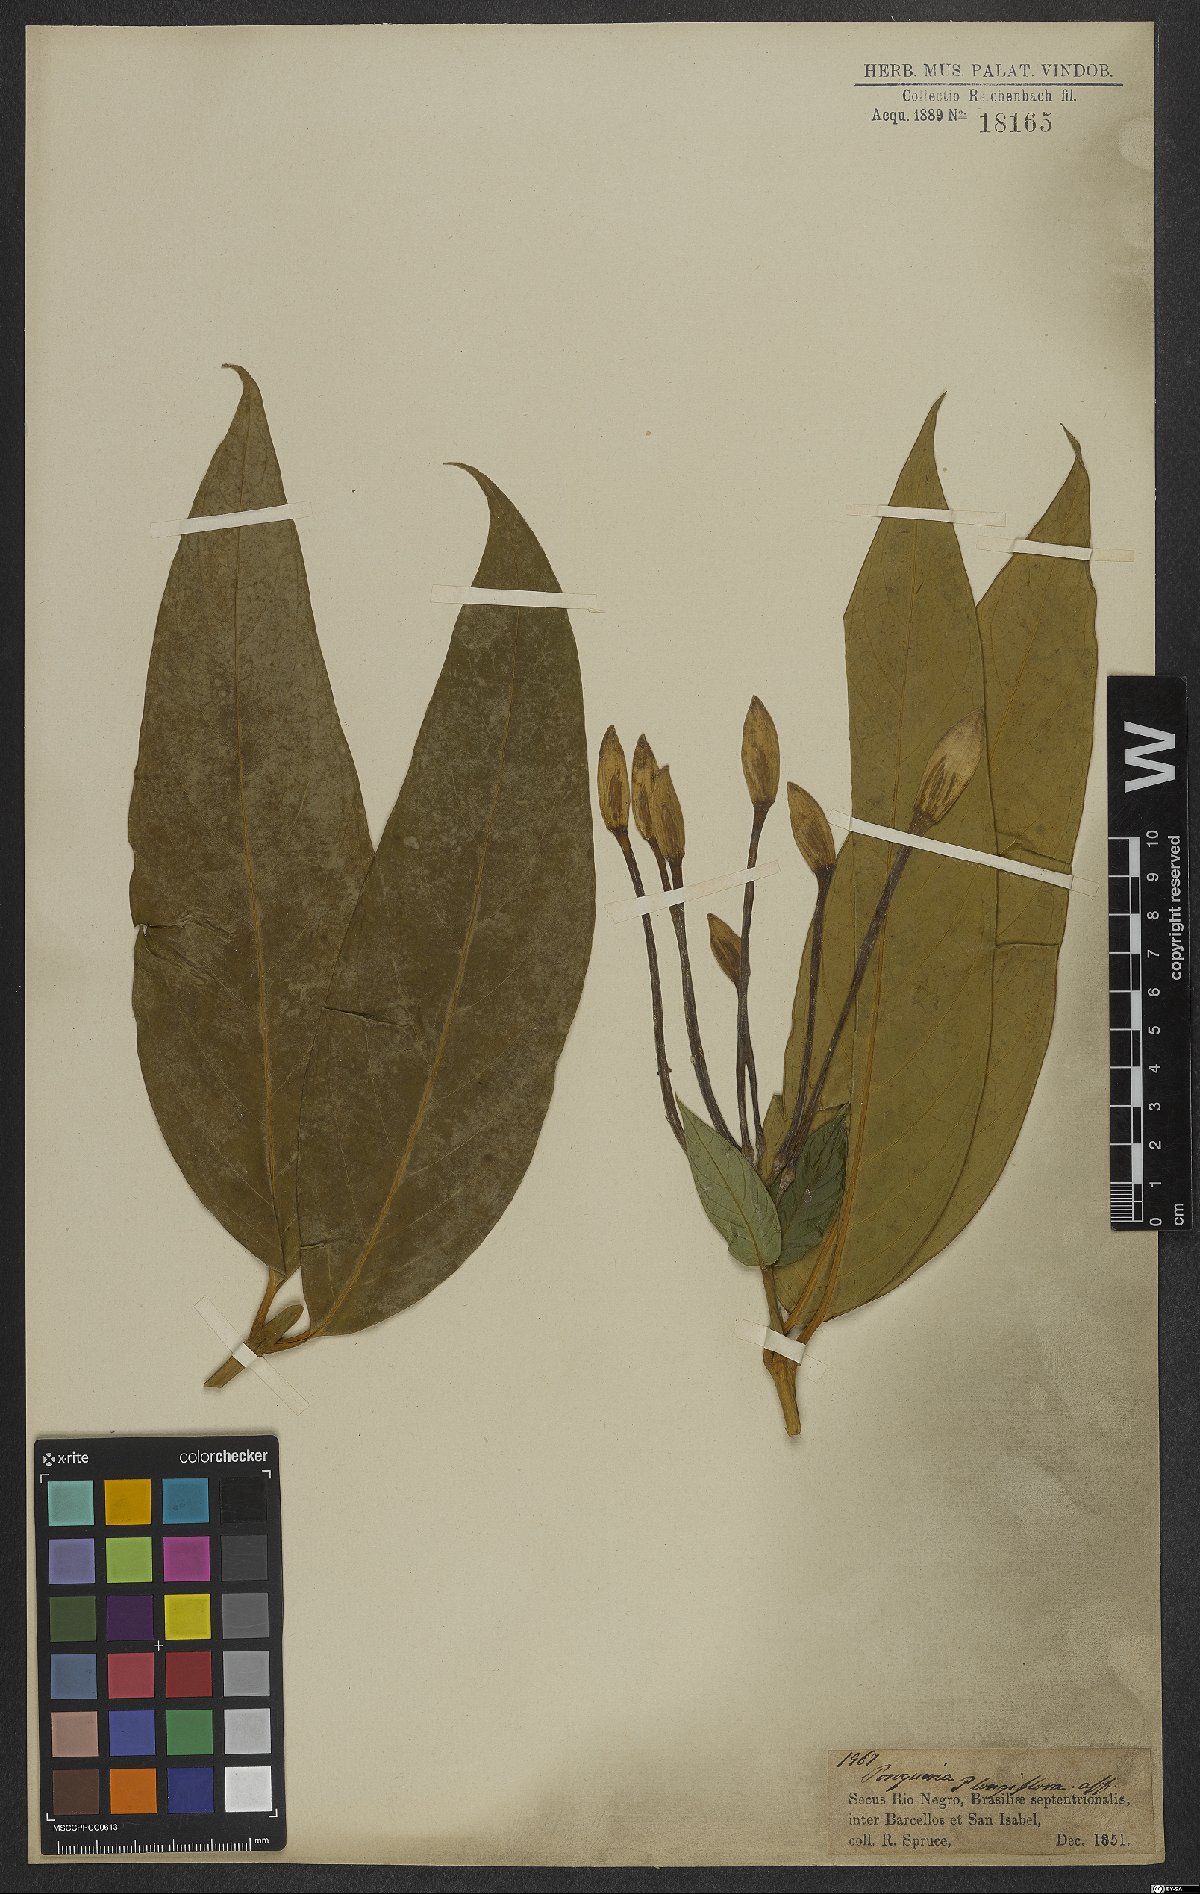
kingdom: Plantae
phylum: Tracheophyta
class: Magnoliopsida
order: Gentianales
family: Rubiaceae
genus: Posoqueria
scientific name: Posoqueria longiflora
